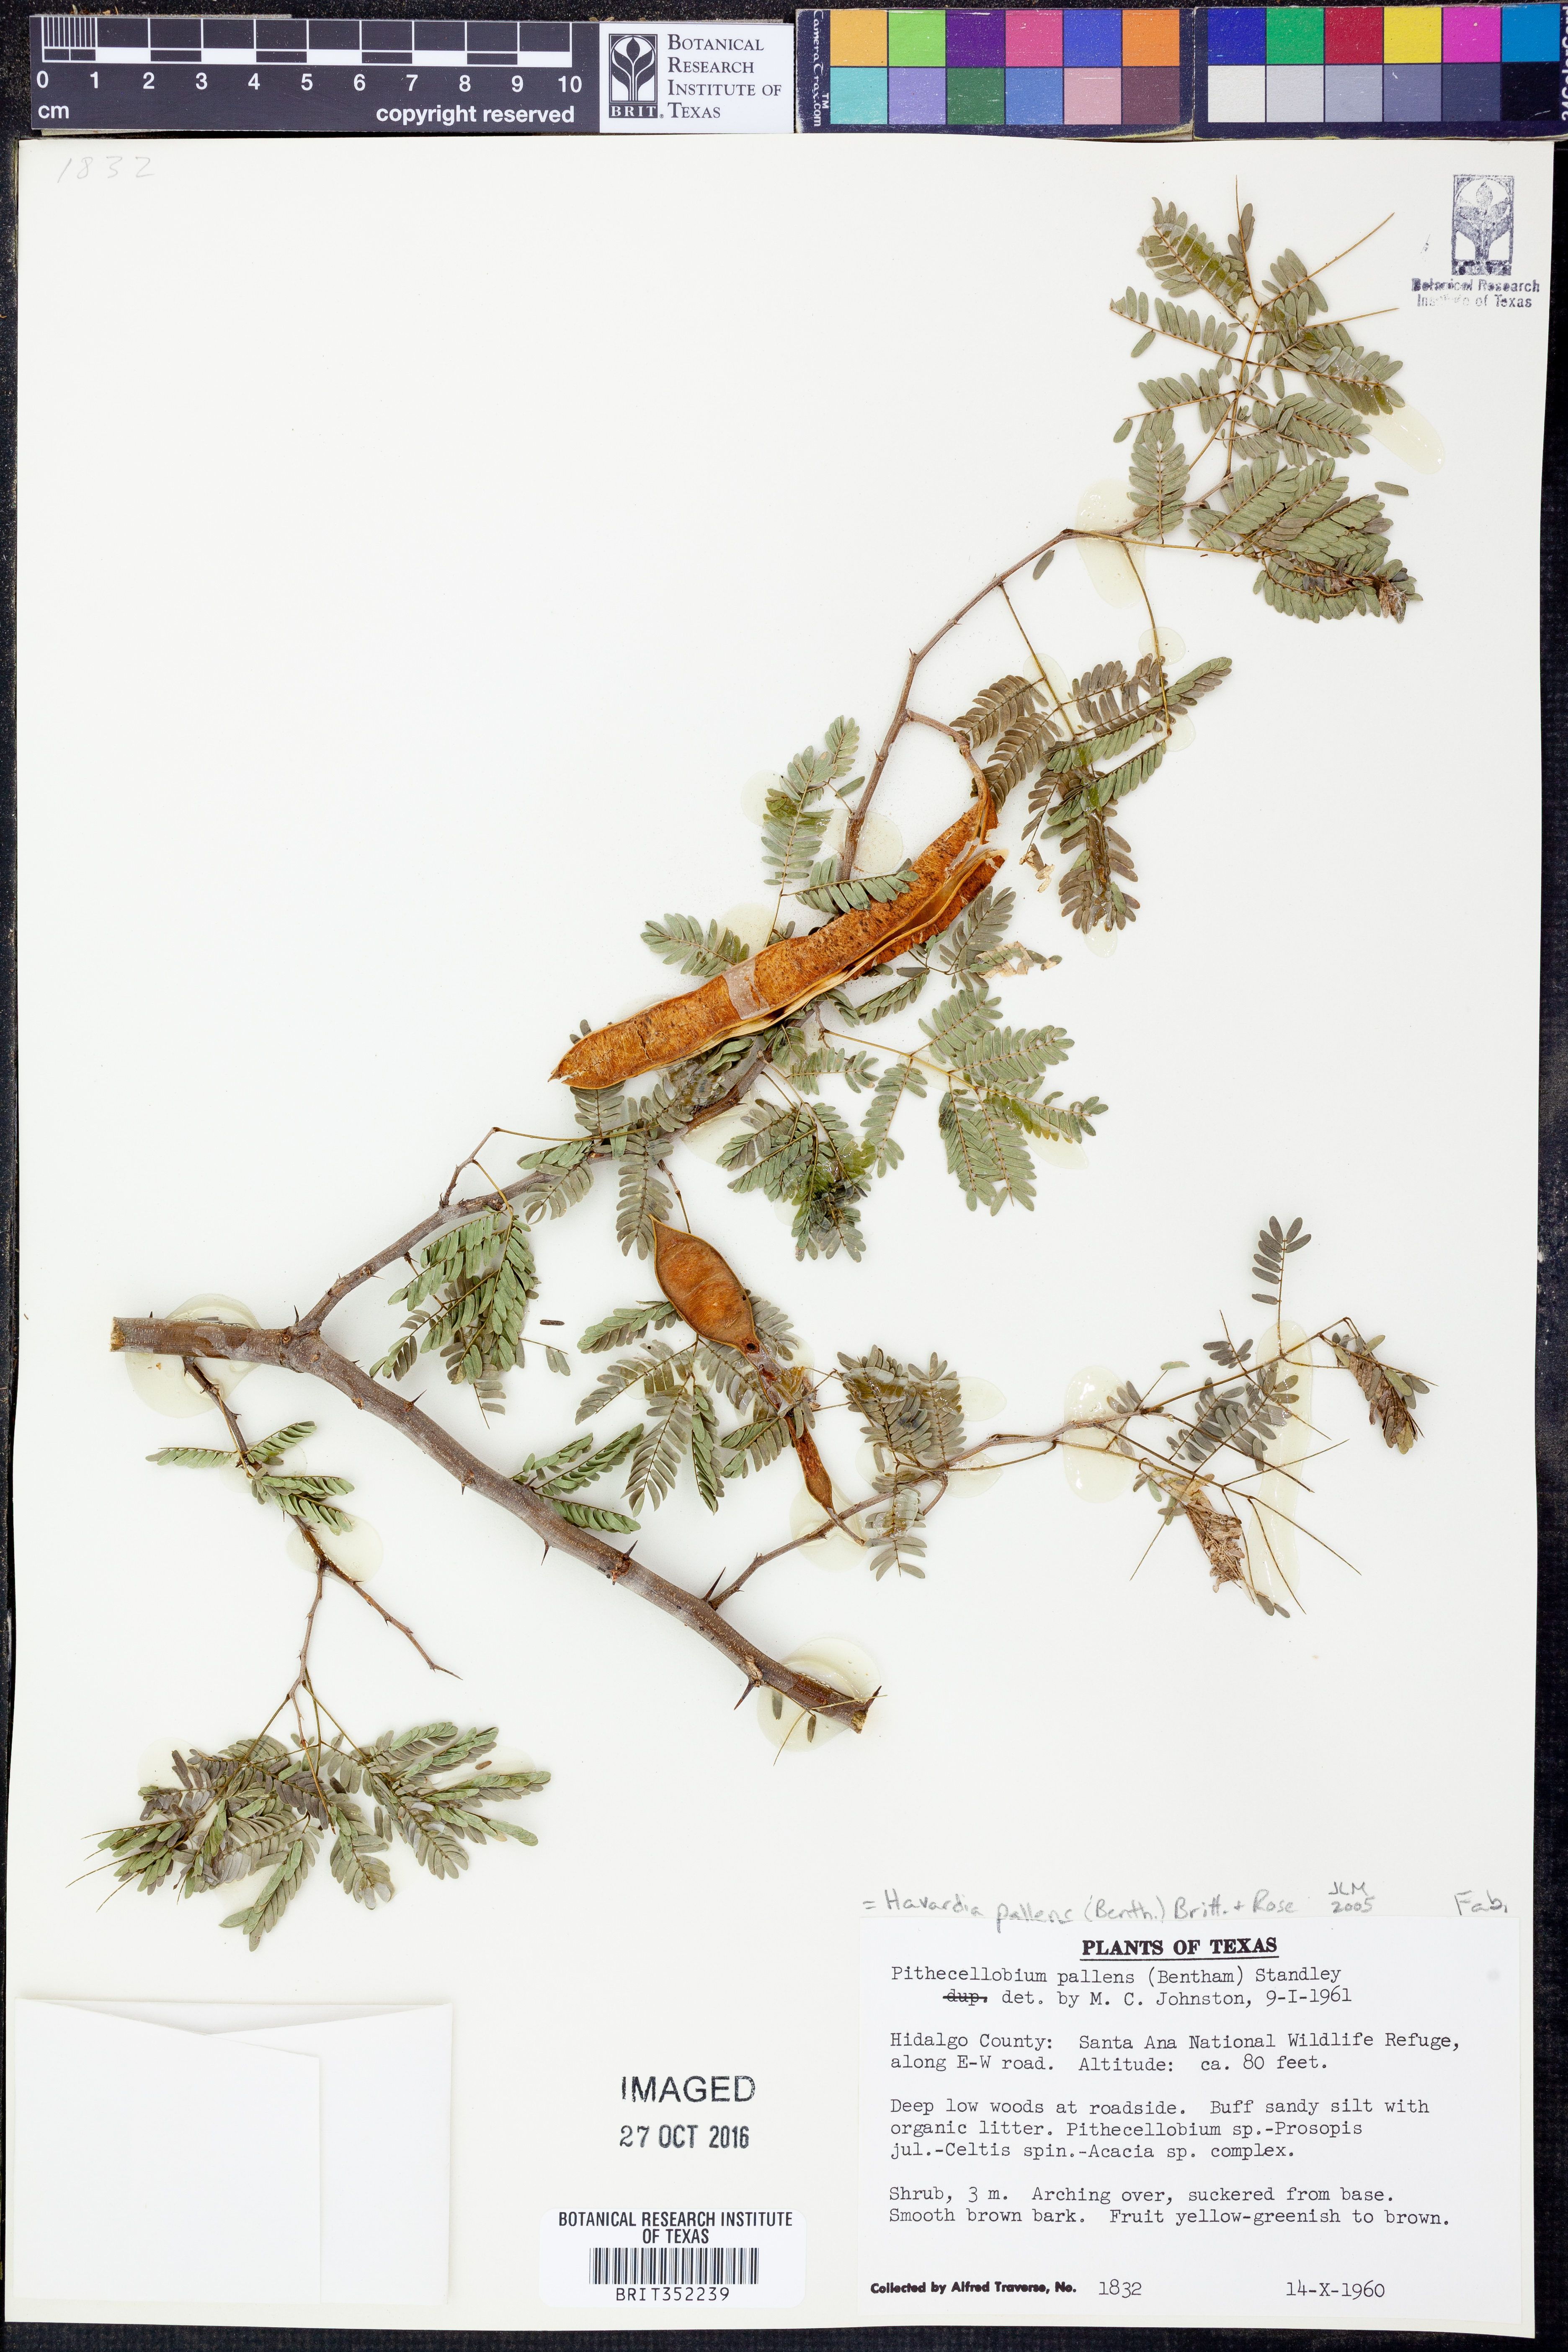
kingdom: Plantae
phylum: Tracheophyta
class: Magnoliopsida
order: Fabales
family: Fabaceae
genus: Havardia
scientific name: Havardia pallens
